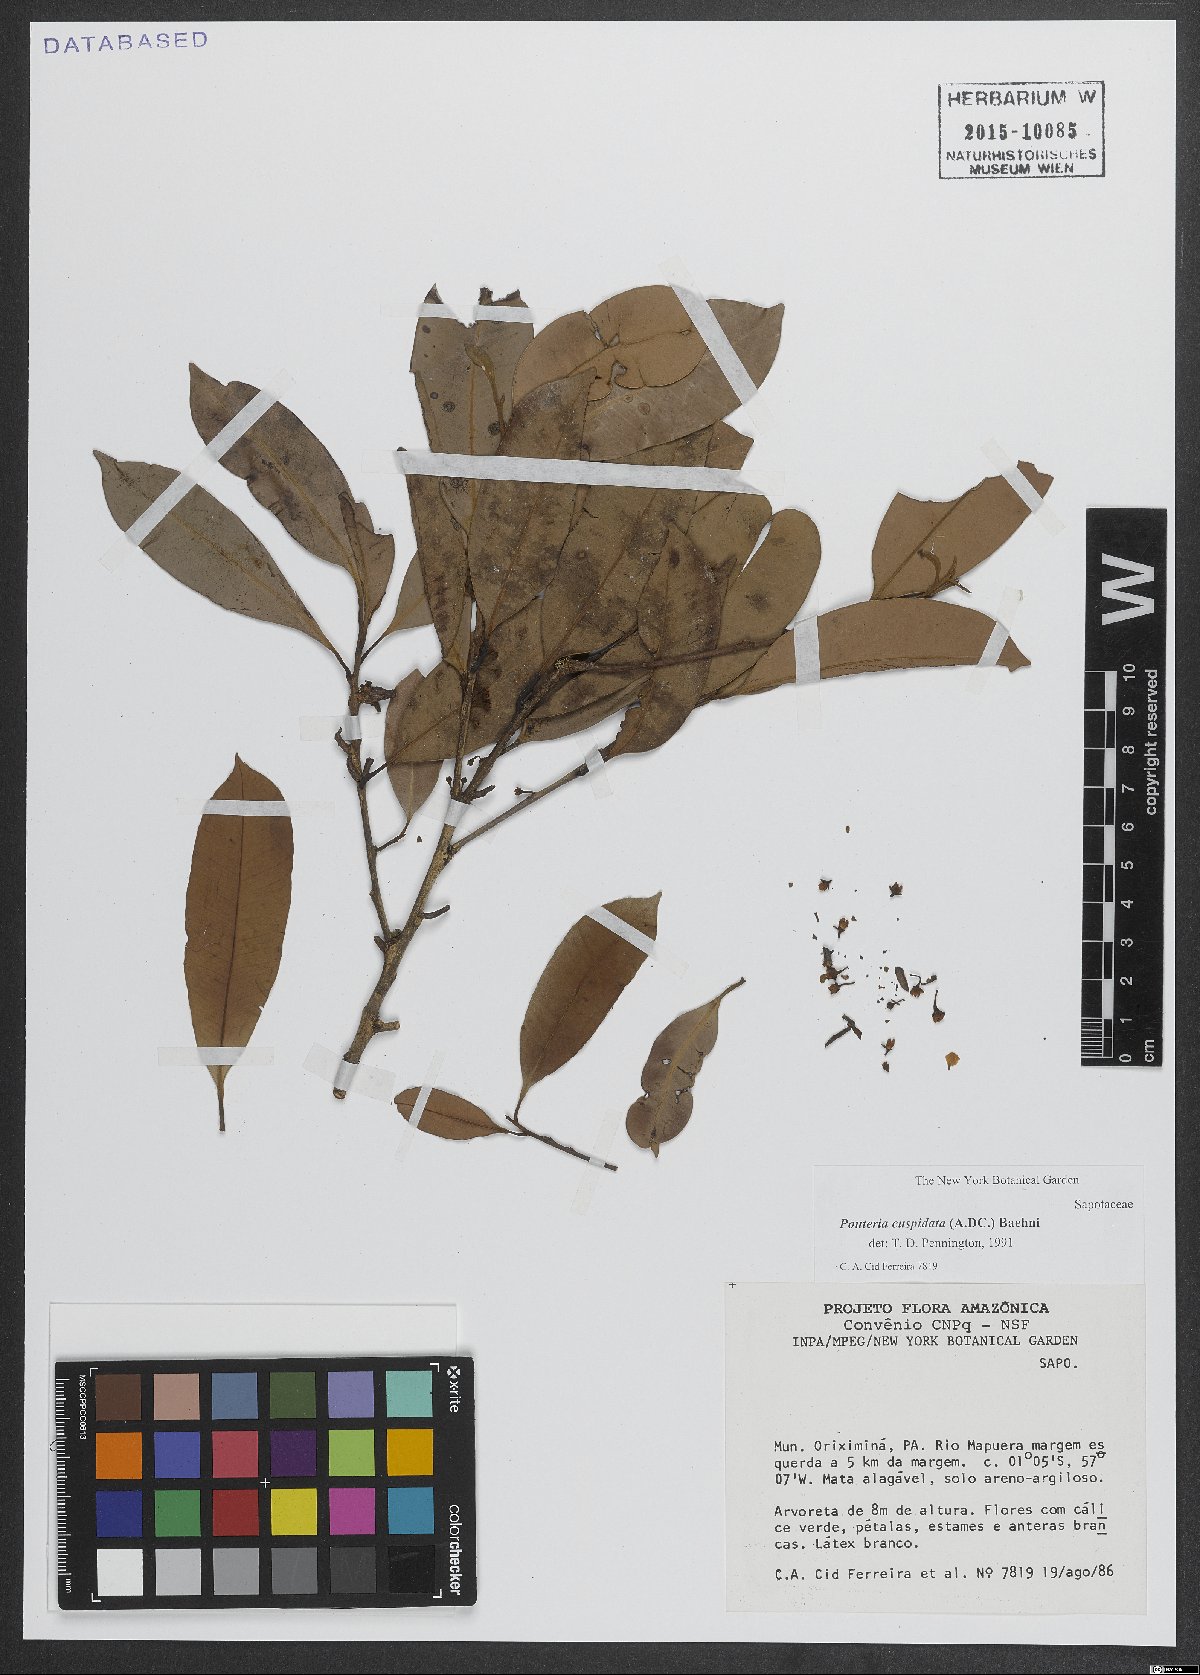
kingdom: Plantae
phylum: Tracheophyta
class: Magnoliopsida
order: Ericales
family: Sapotaceae
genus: Pouteria
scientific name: Pouteria cuspidata
